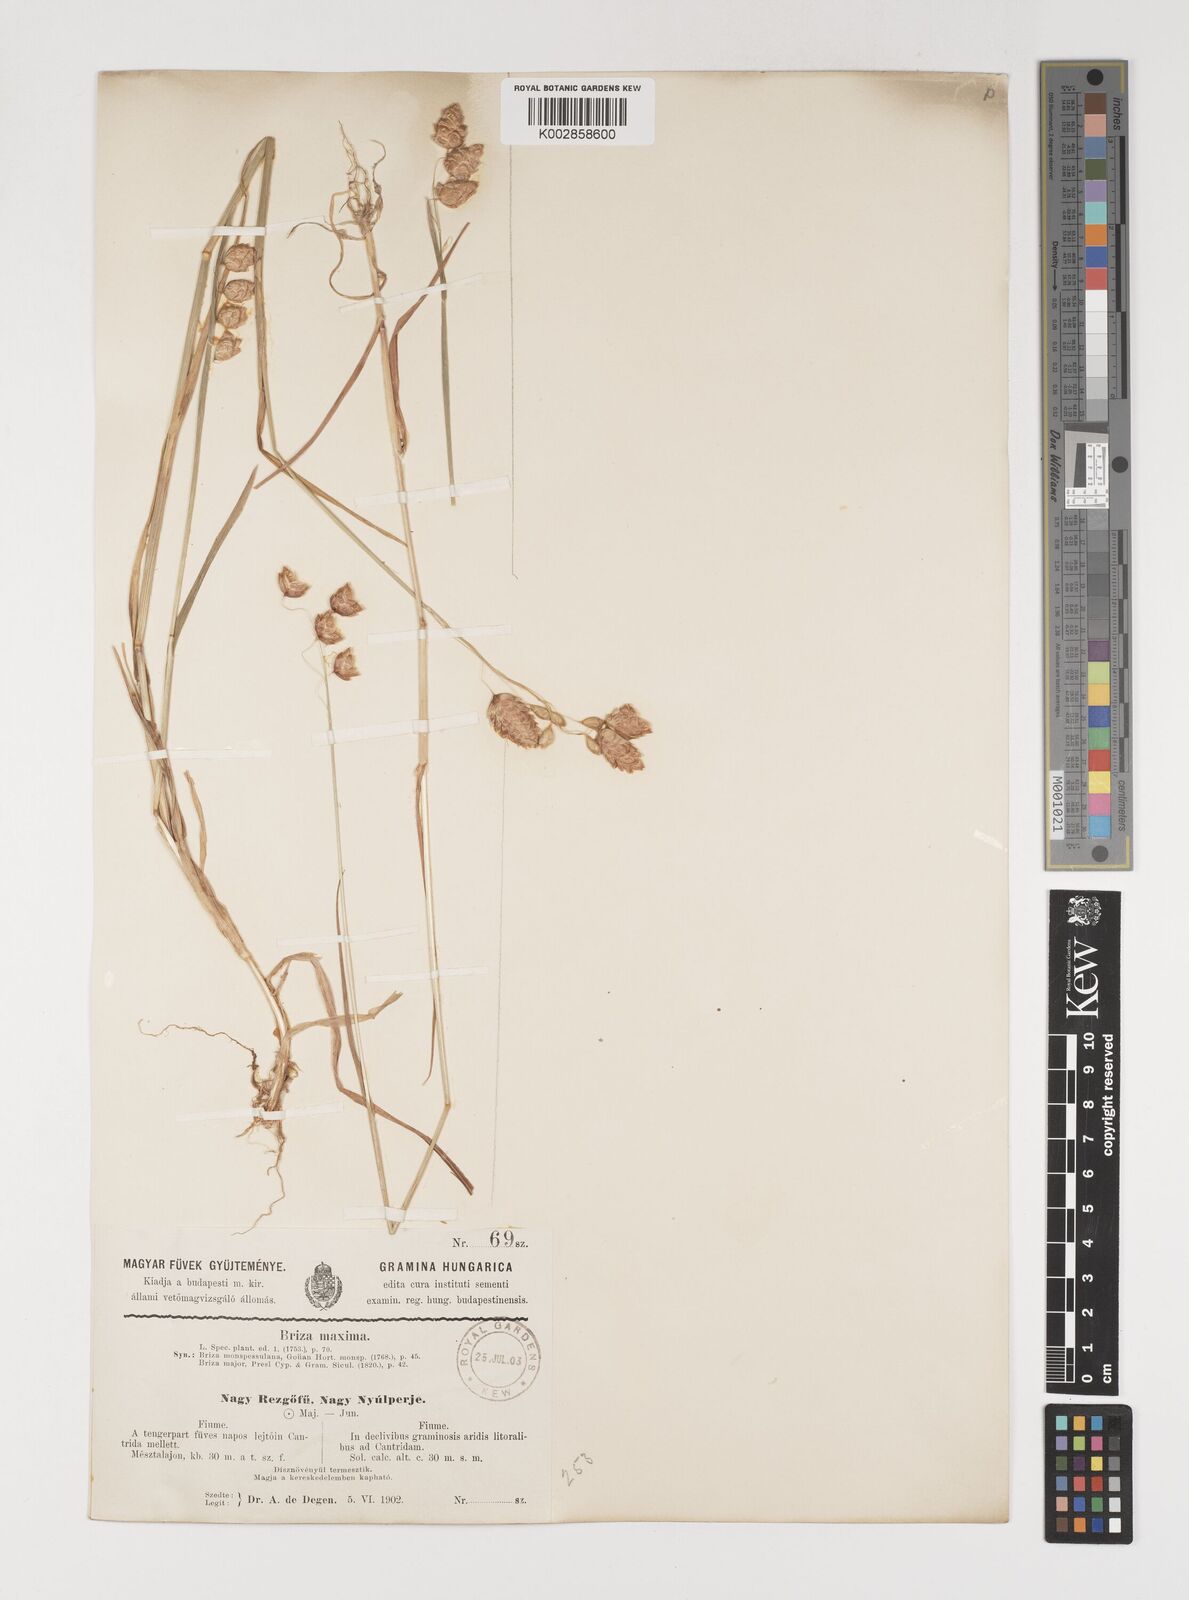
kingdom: Plantae
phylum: Tracheophyta
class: Liliopsida
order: Poales
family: Poaceae
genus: Briza
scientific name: Briza maxima
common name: Big quakinggrass
